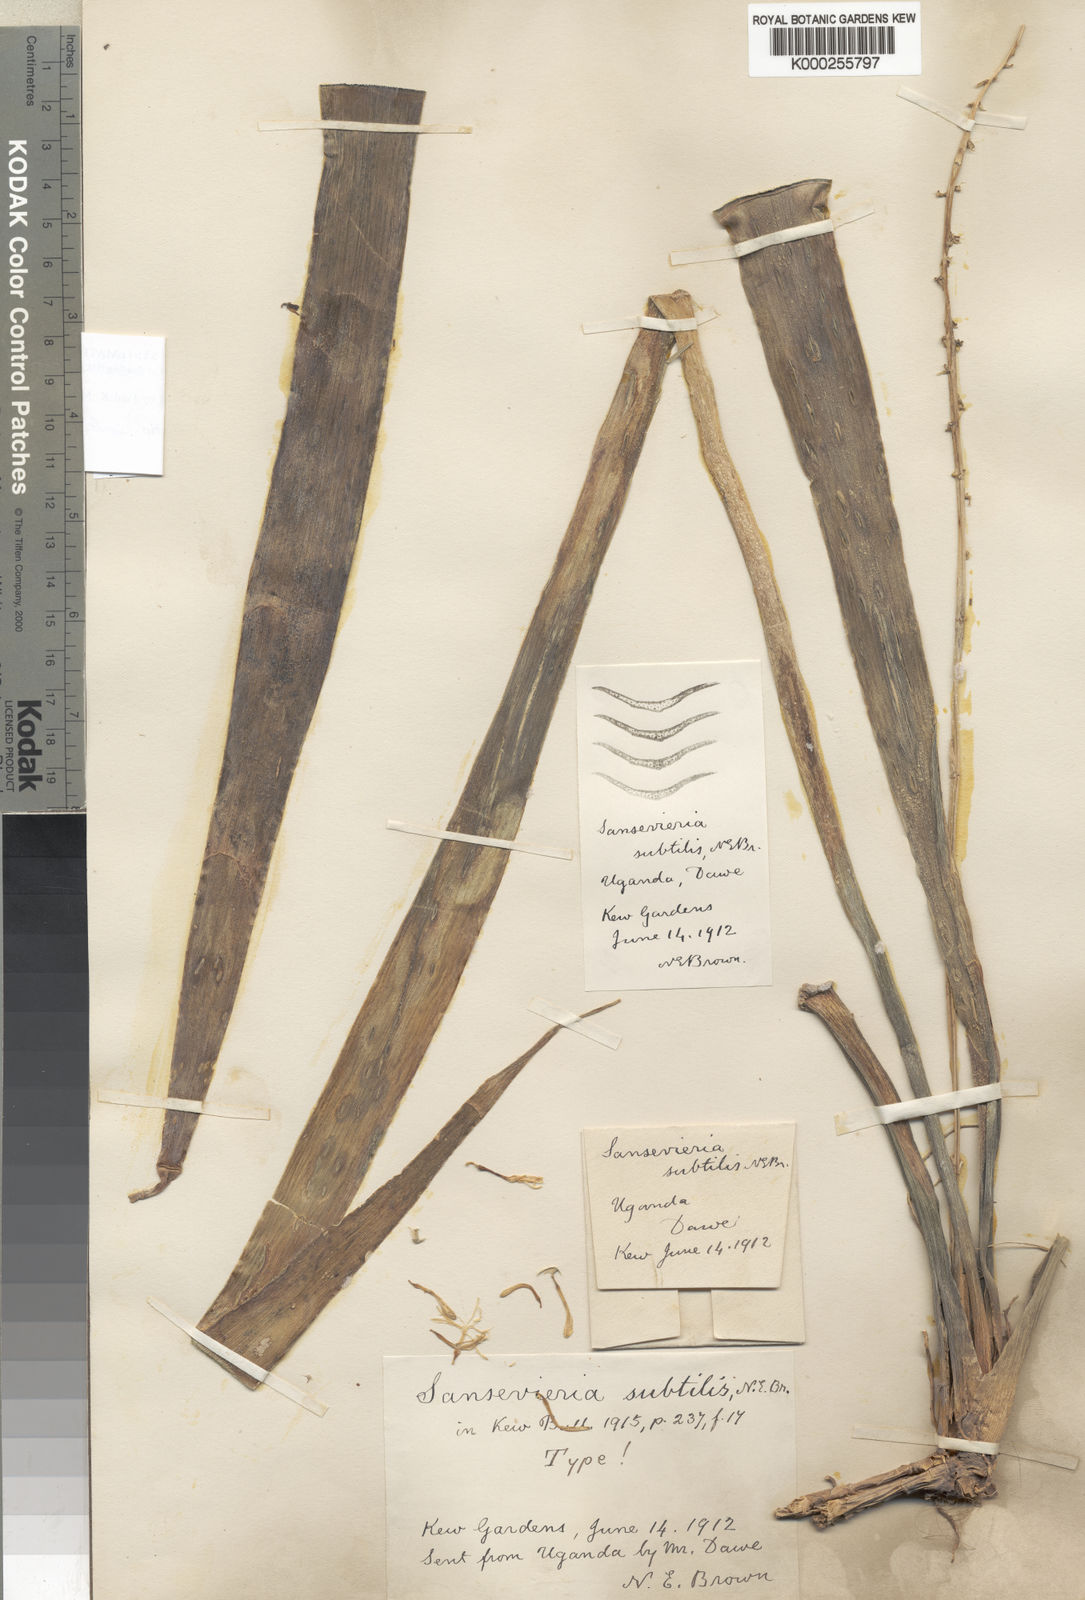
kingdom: Plantae
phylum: Tracheophyta
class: Liliopsida
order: Asparagales
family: Asparagaceae
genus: Dracaena
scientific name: Dracaena subtilis
